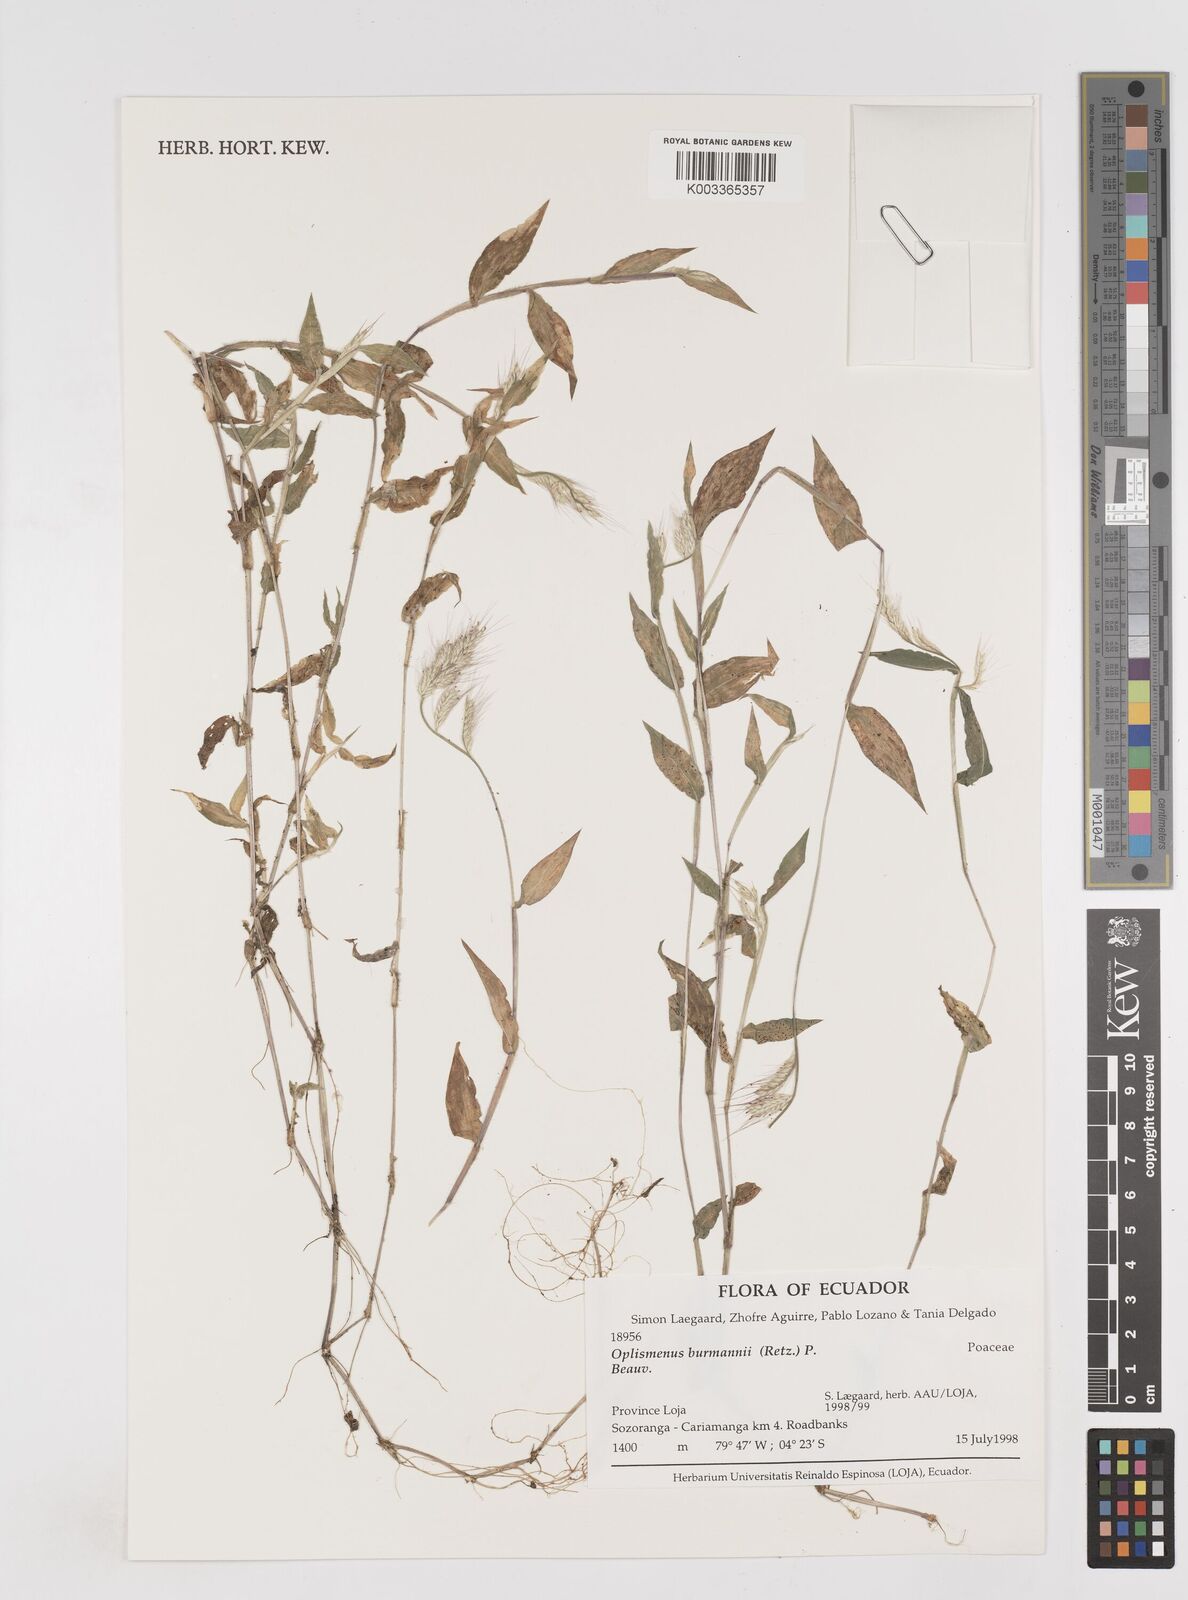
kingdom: Plantae
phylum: Tracheophyta
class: Liliopsida
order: Poales
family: Poaceae
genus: Oplismenus
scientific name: Oplismenus burmanni
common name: Burmann's basketgrass
